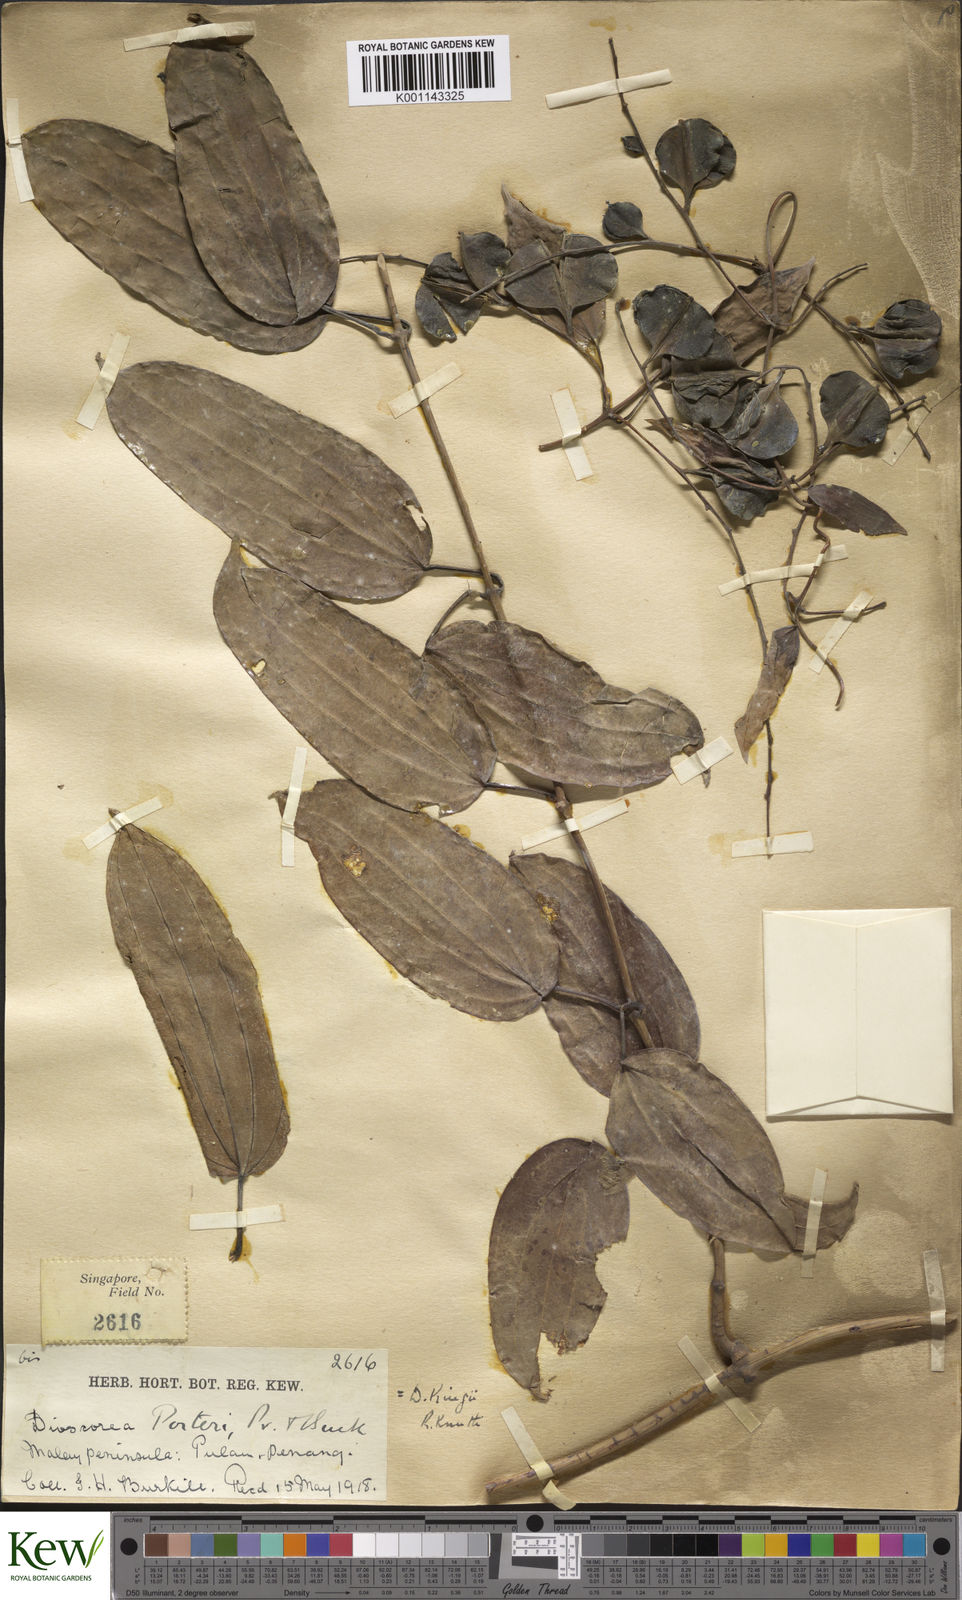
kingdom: Plantae
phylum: Tracheophyta
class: Liliopsida
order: Dioscoreales
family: Dioscoreaceae
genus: Dioscorea
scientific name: Dioscorea kingii
